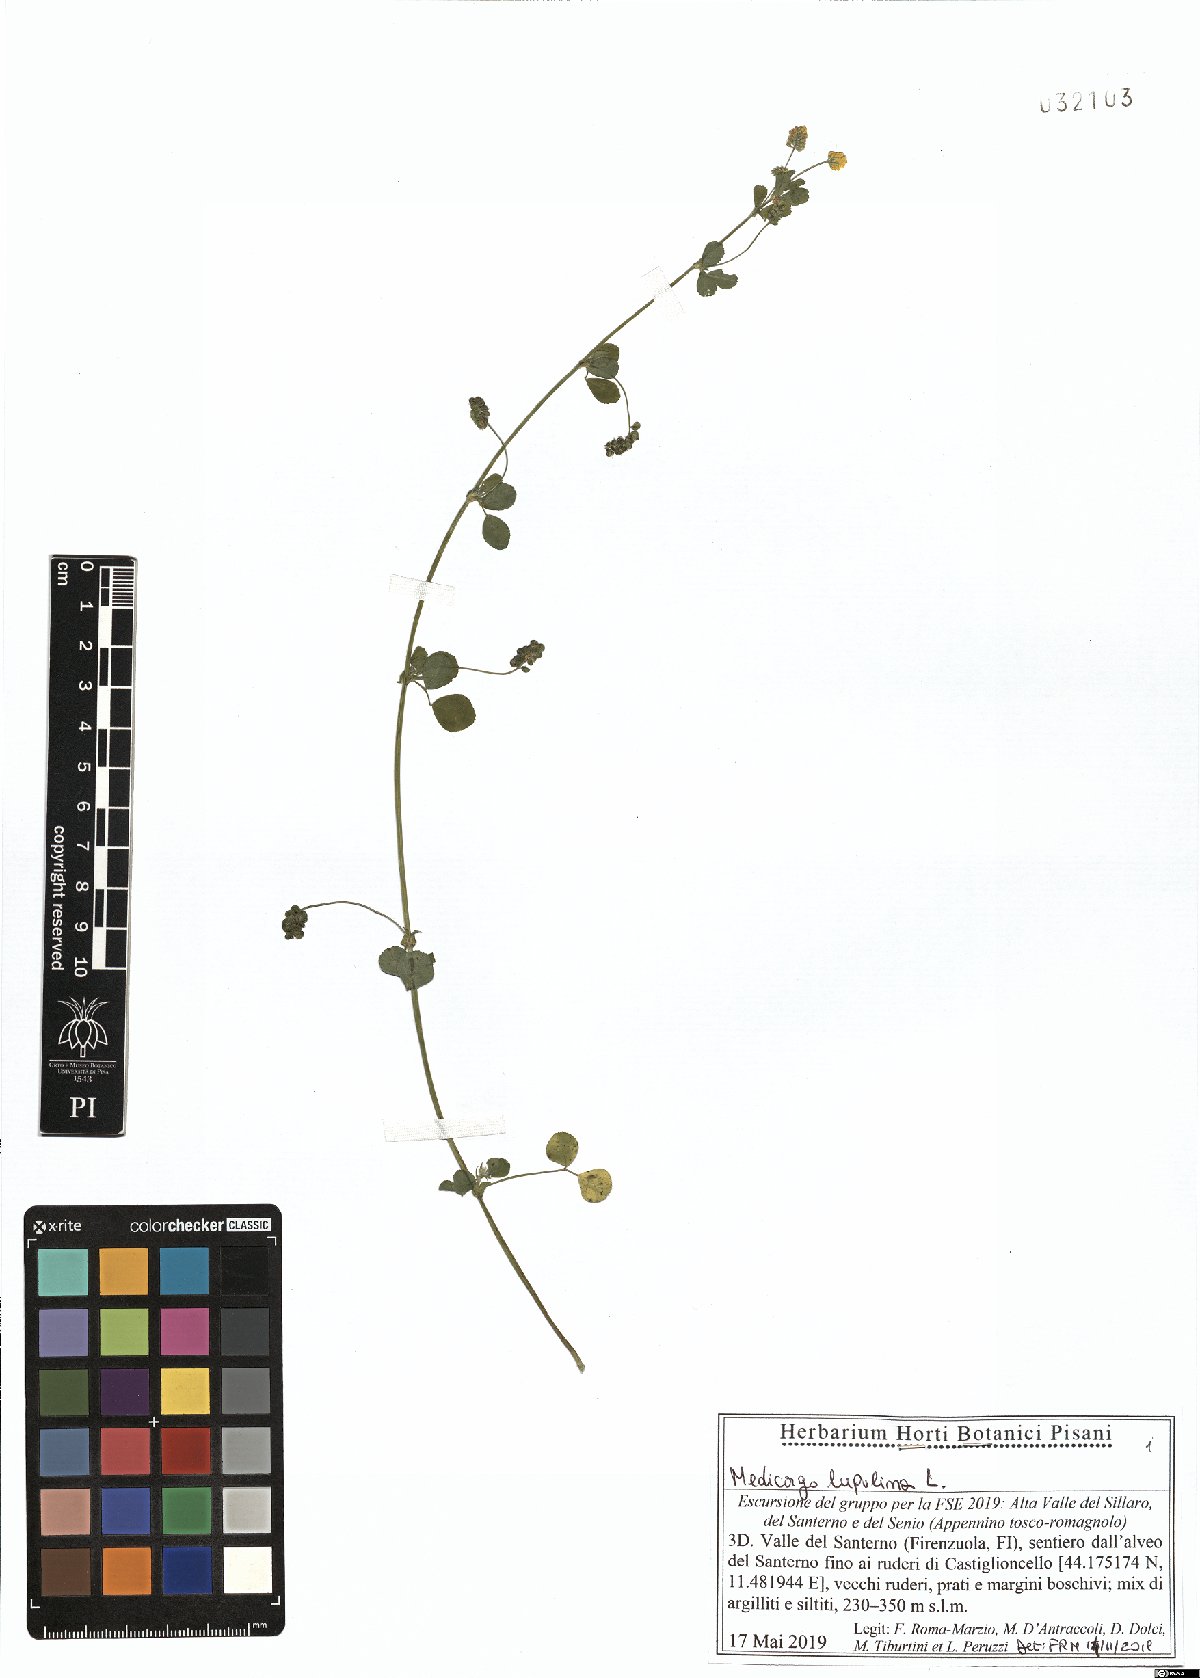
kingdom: Plantae
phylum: Tracheophyta
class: Magnoliopsida
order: Fabales
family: Fabaceae
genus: Medicago
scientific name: Medicago lupulina
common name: Black medick
